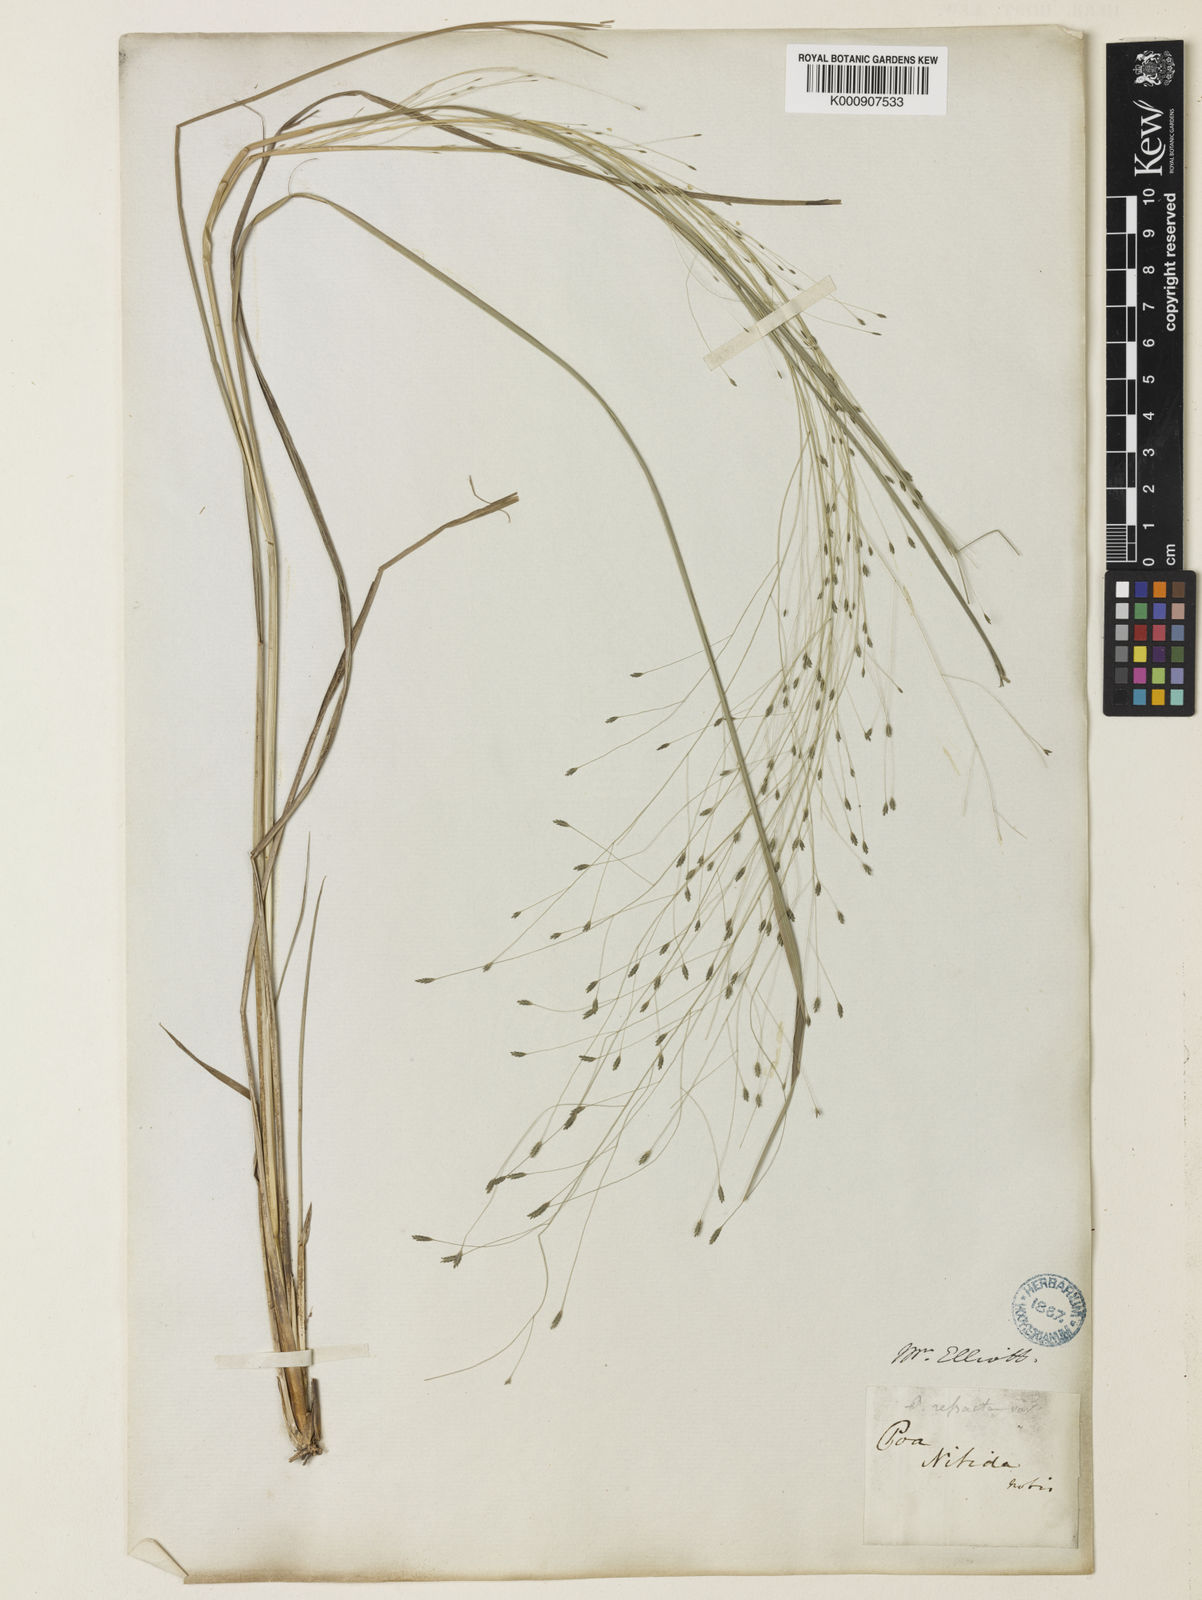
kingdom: Plantae
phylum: Tracheophyta
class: Liliopsida
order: Poales
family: Poaceae
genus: Eragrostis
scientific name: Eragrostis elliottii
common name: Elliott's love grass
